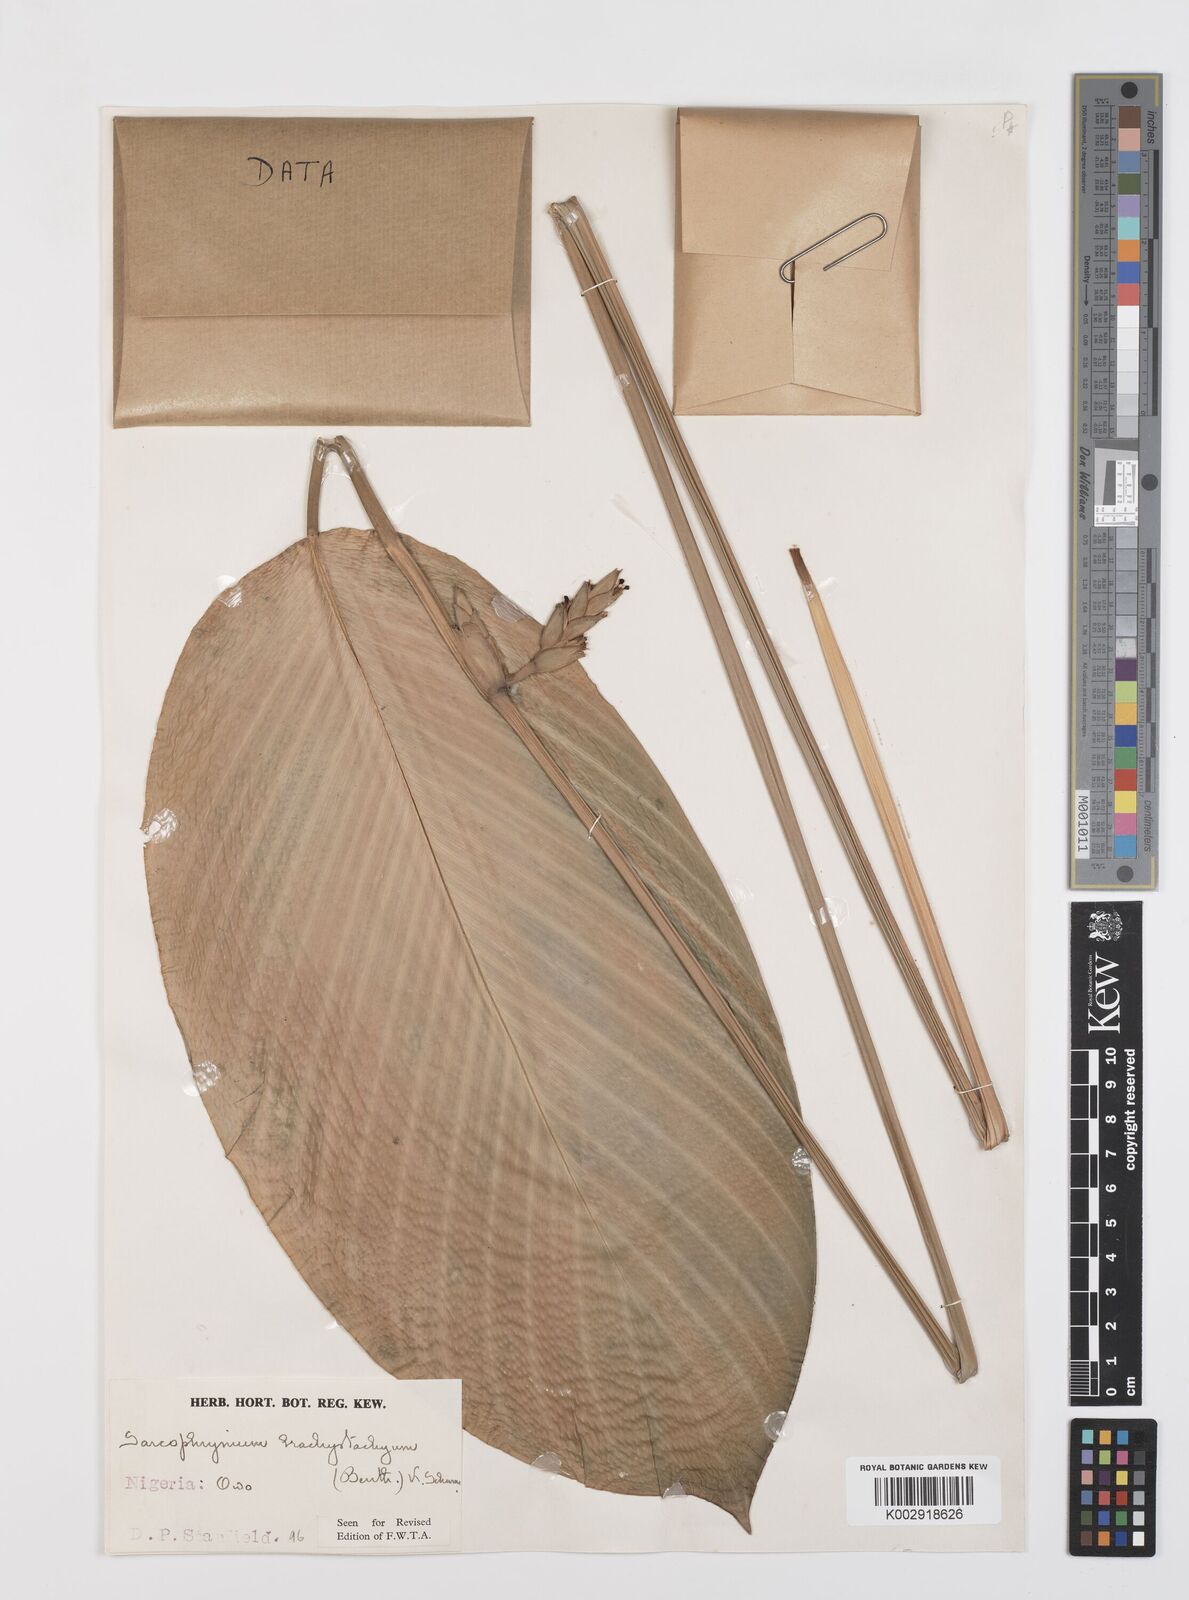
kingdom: Plantae
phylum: Tracheophyta
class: Liliopsida
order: Zingiberales
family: Marantaceae
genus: Sarcophrynium
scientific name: Sarcophrynium brachystachyum
